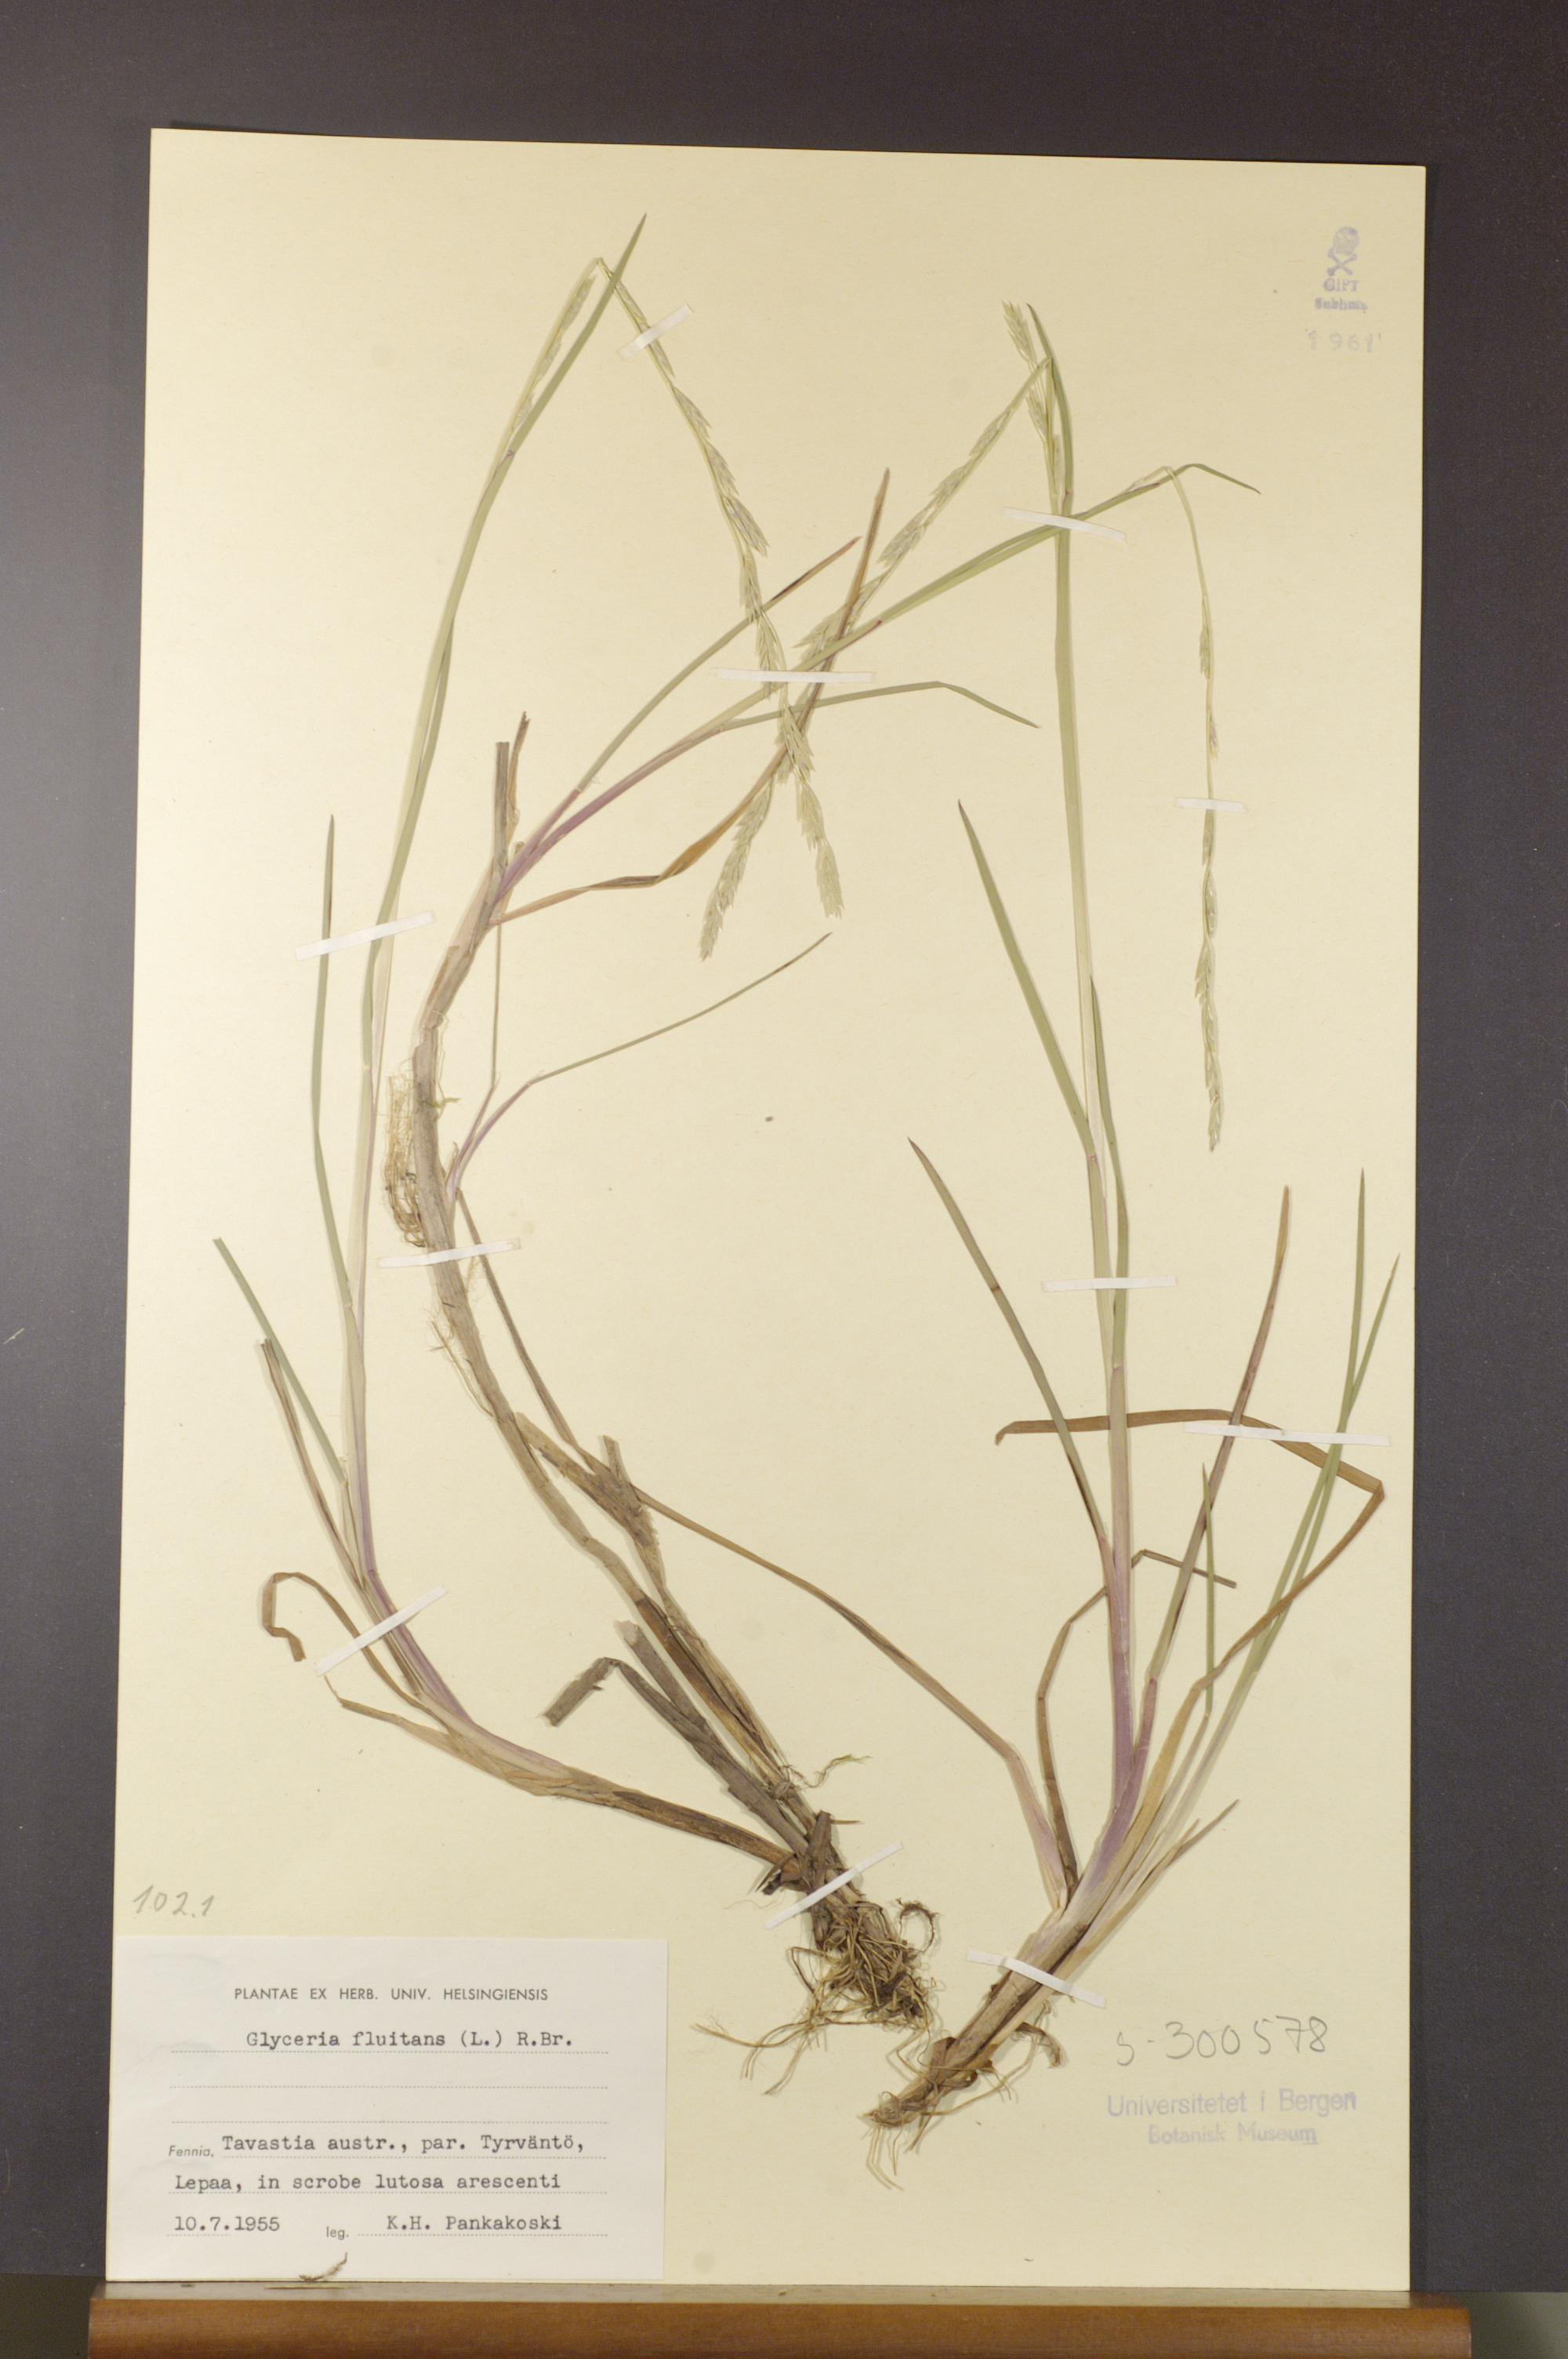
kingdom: Plantae
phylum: Tracheophyta
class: Liliopsida
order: Poales
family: Poaceae
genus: Glyceria
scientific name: Glyceria fluitans
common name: Floating sweet-grass
